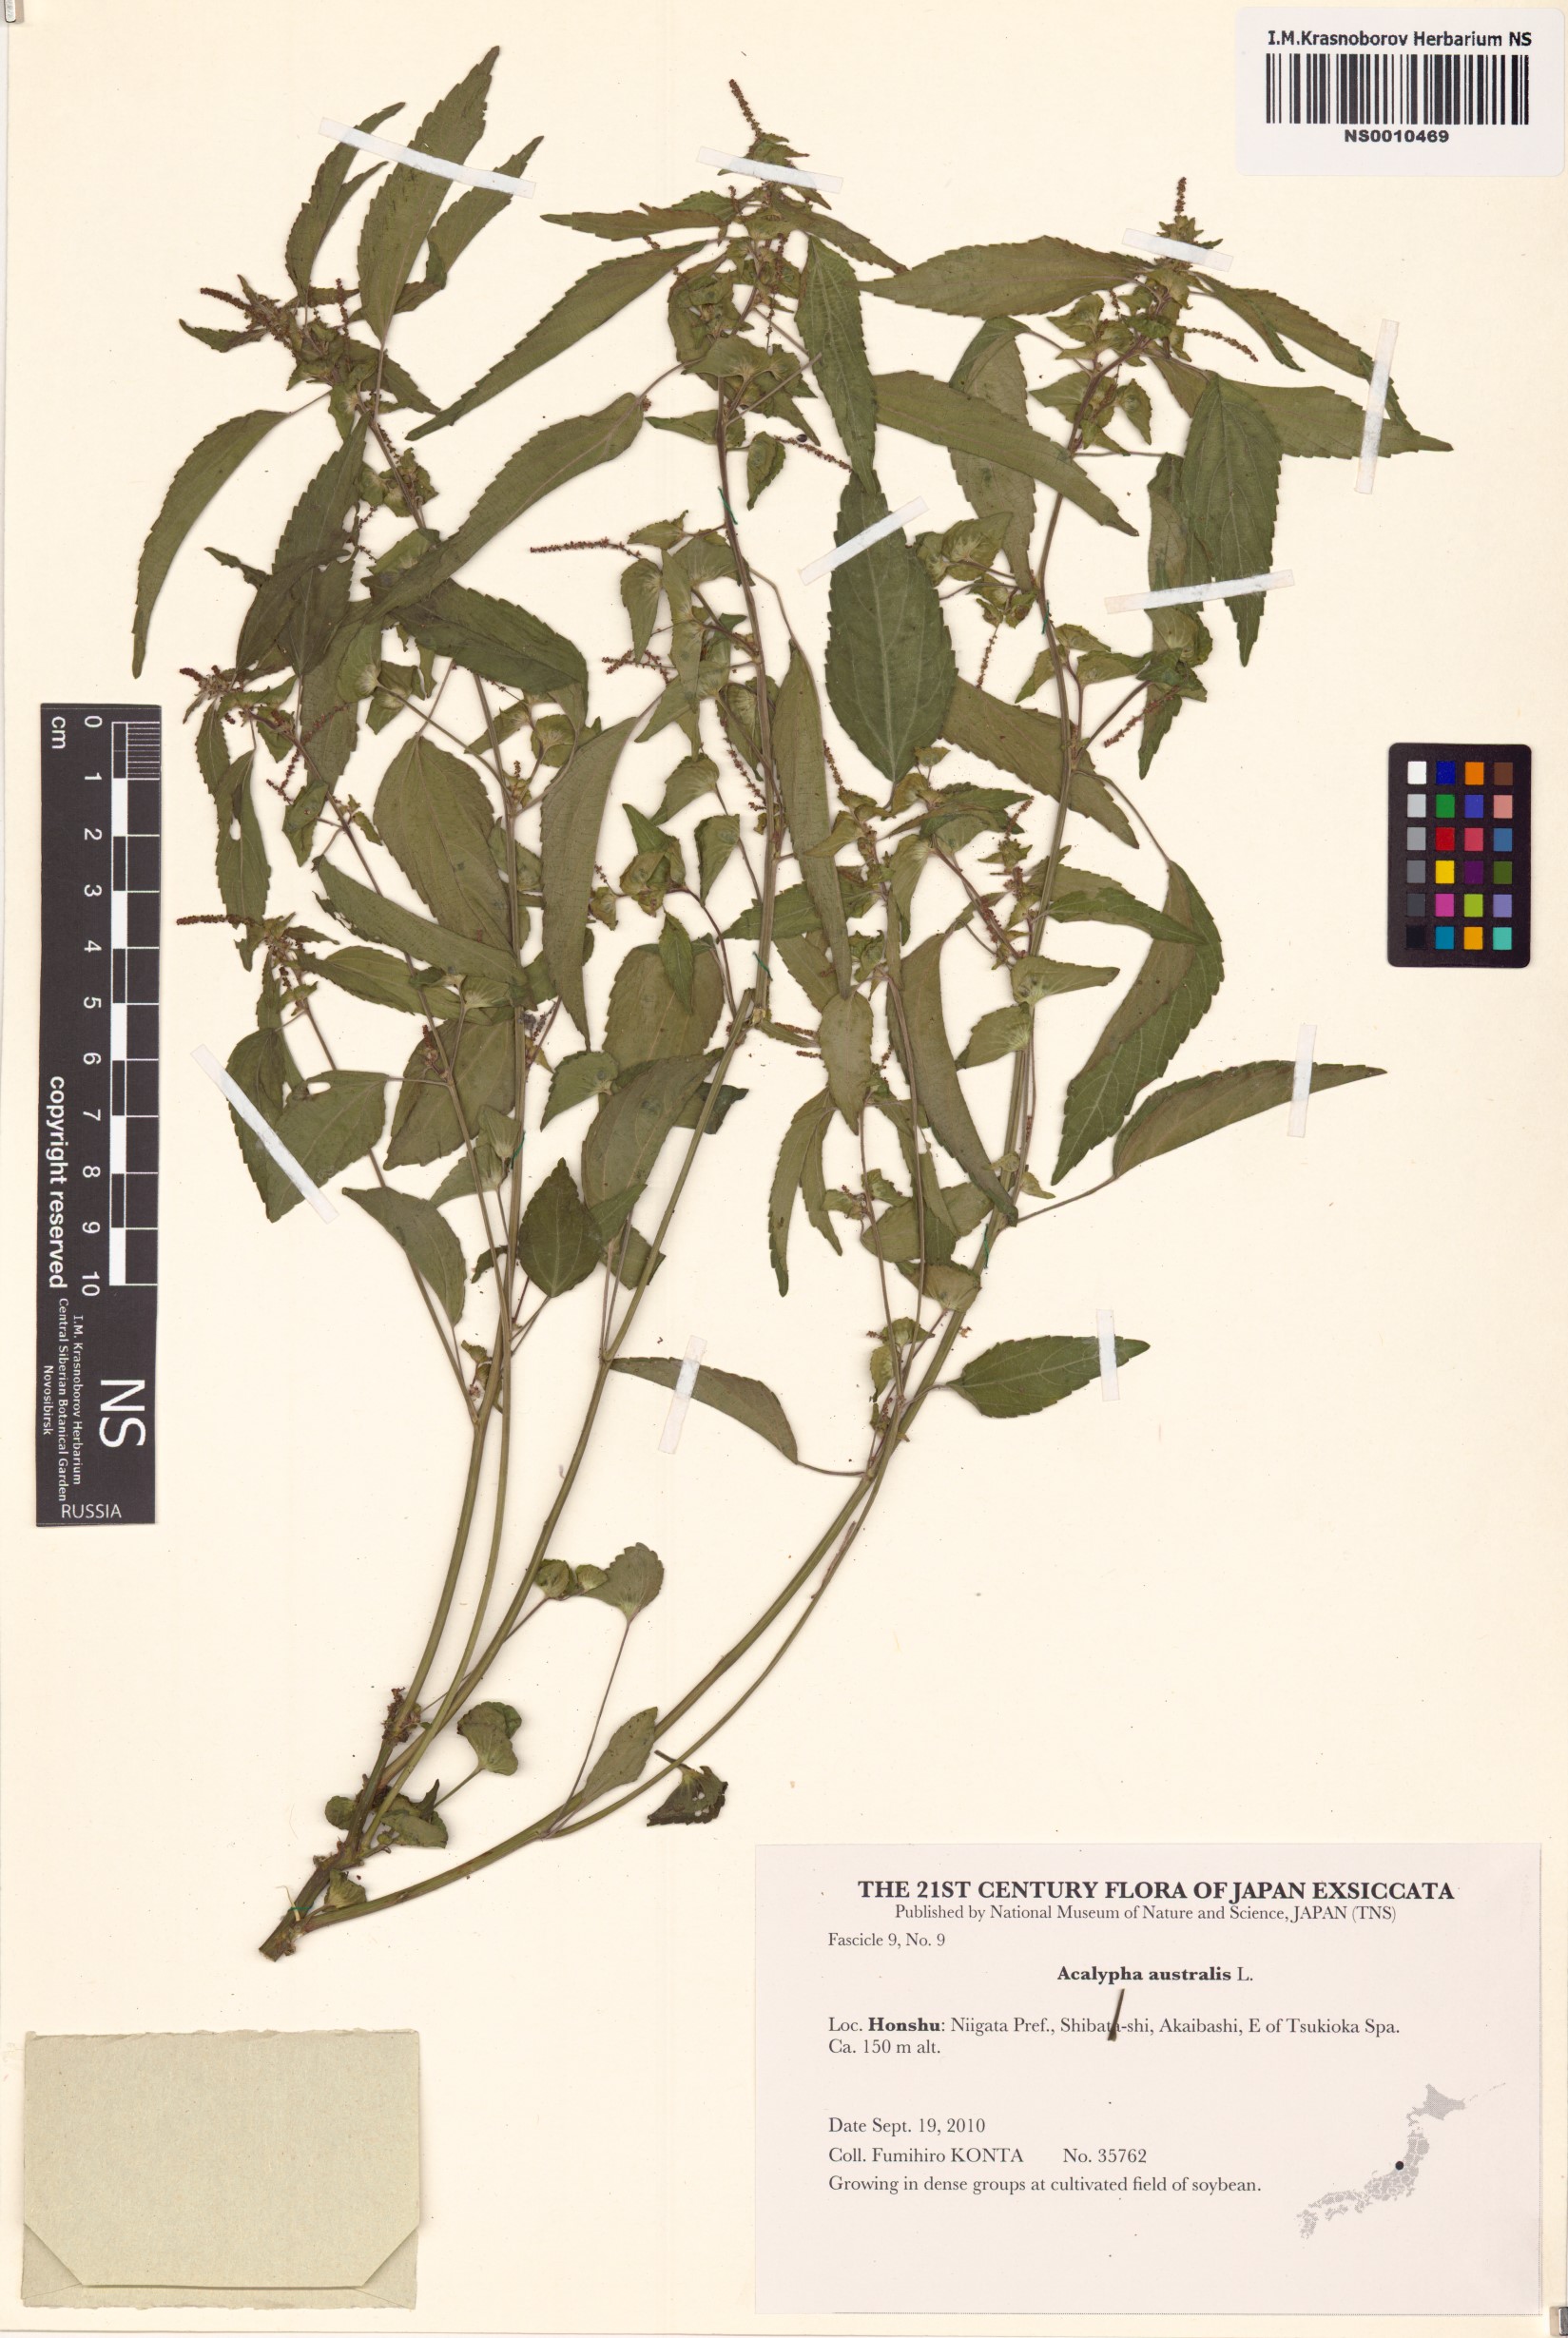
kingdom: Plantae
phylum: Tracheophyta
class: Magnoliopsida
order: Malpighiales
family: Euphorbiaceae
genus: Acalypha
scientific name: Acalypha australis
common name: Asian copperleaf
